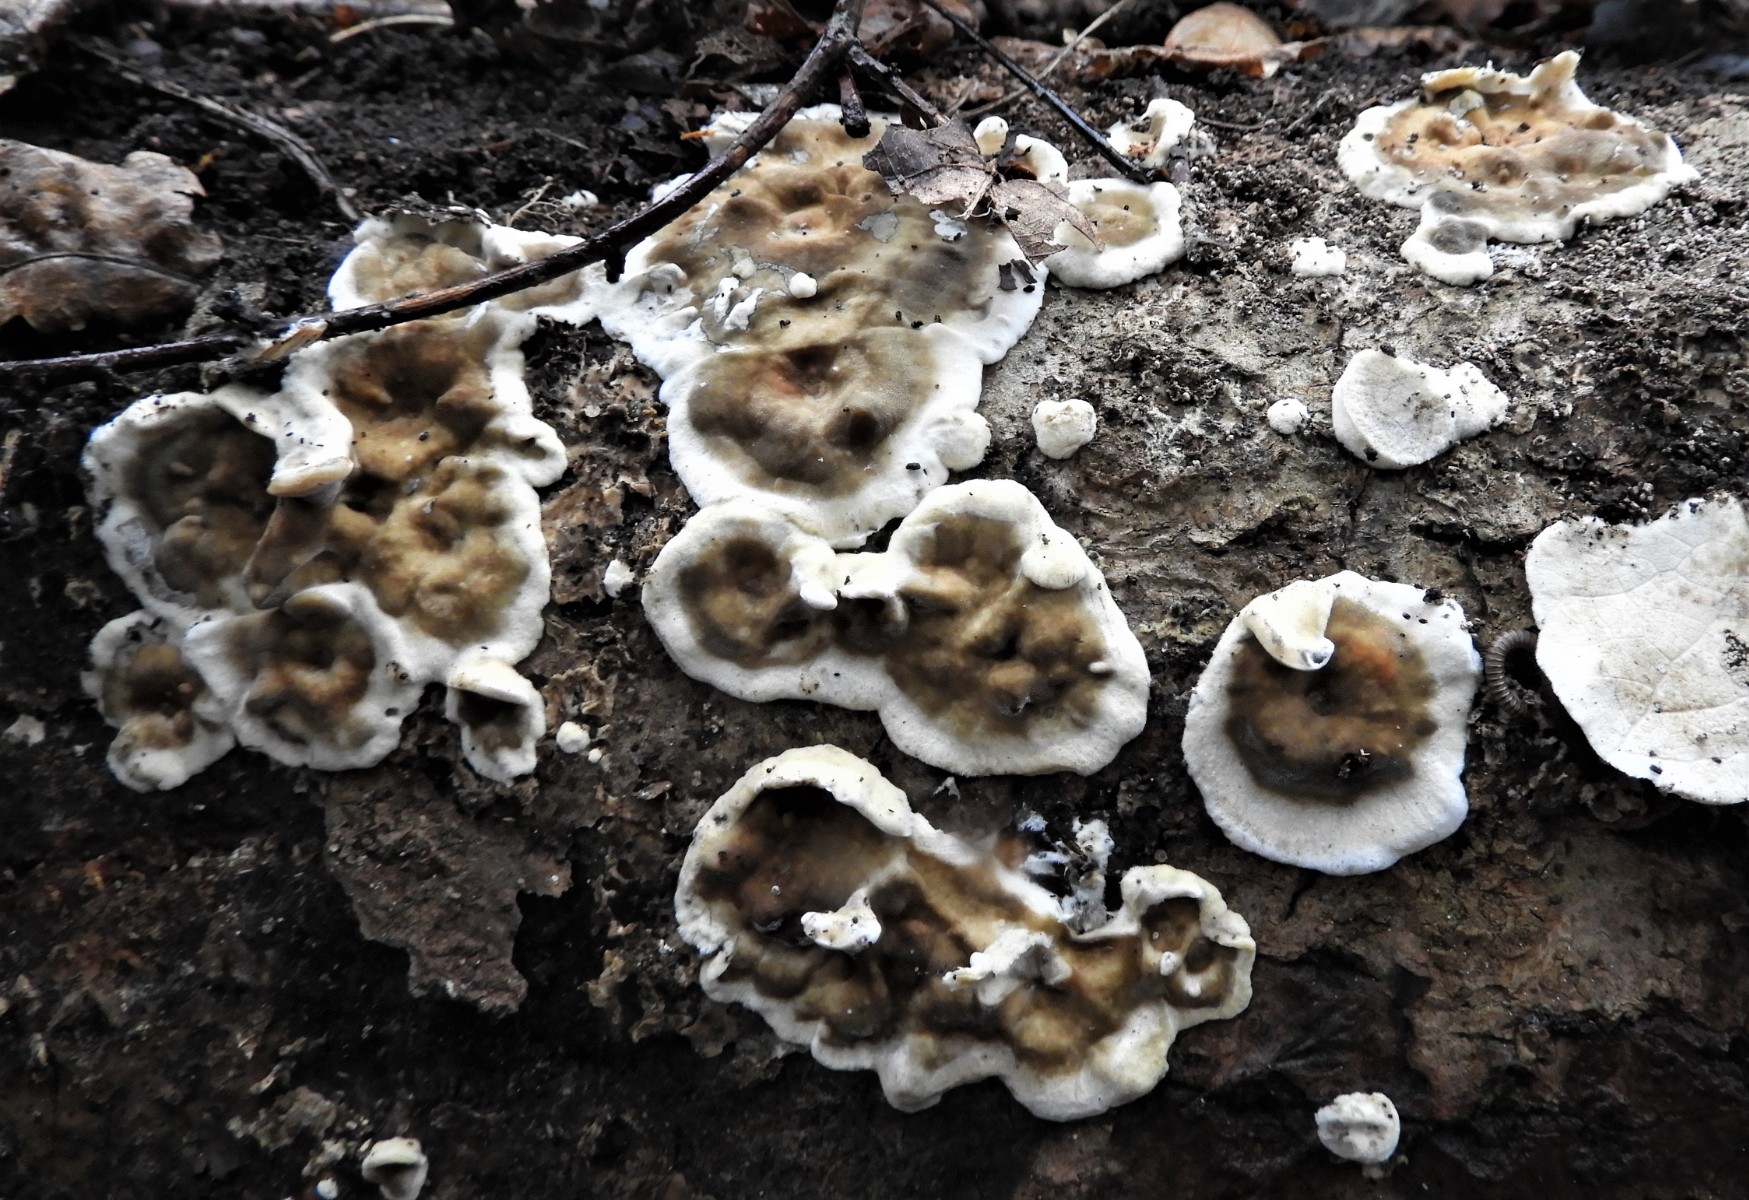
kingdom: Fungi
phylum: Basidiomycota
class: Agaricomycetes
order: Polyporales
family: Phanerochaetaceae
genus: Bjerkandera
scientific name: Bjerkandera adusta
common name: sveden sodporesvamp
